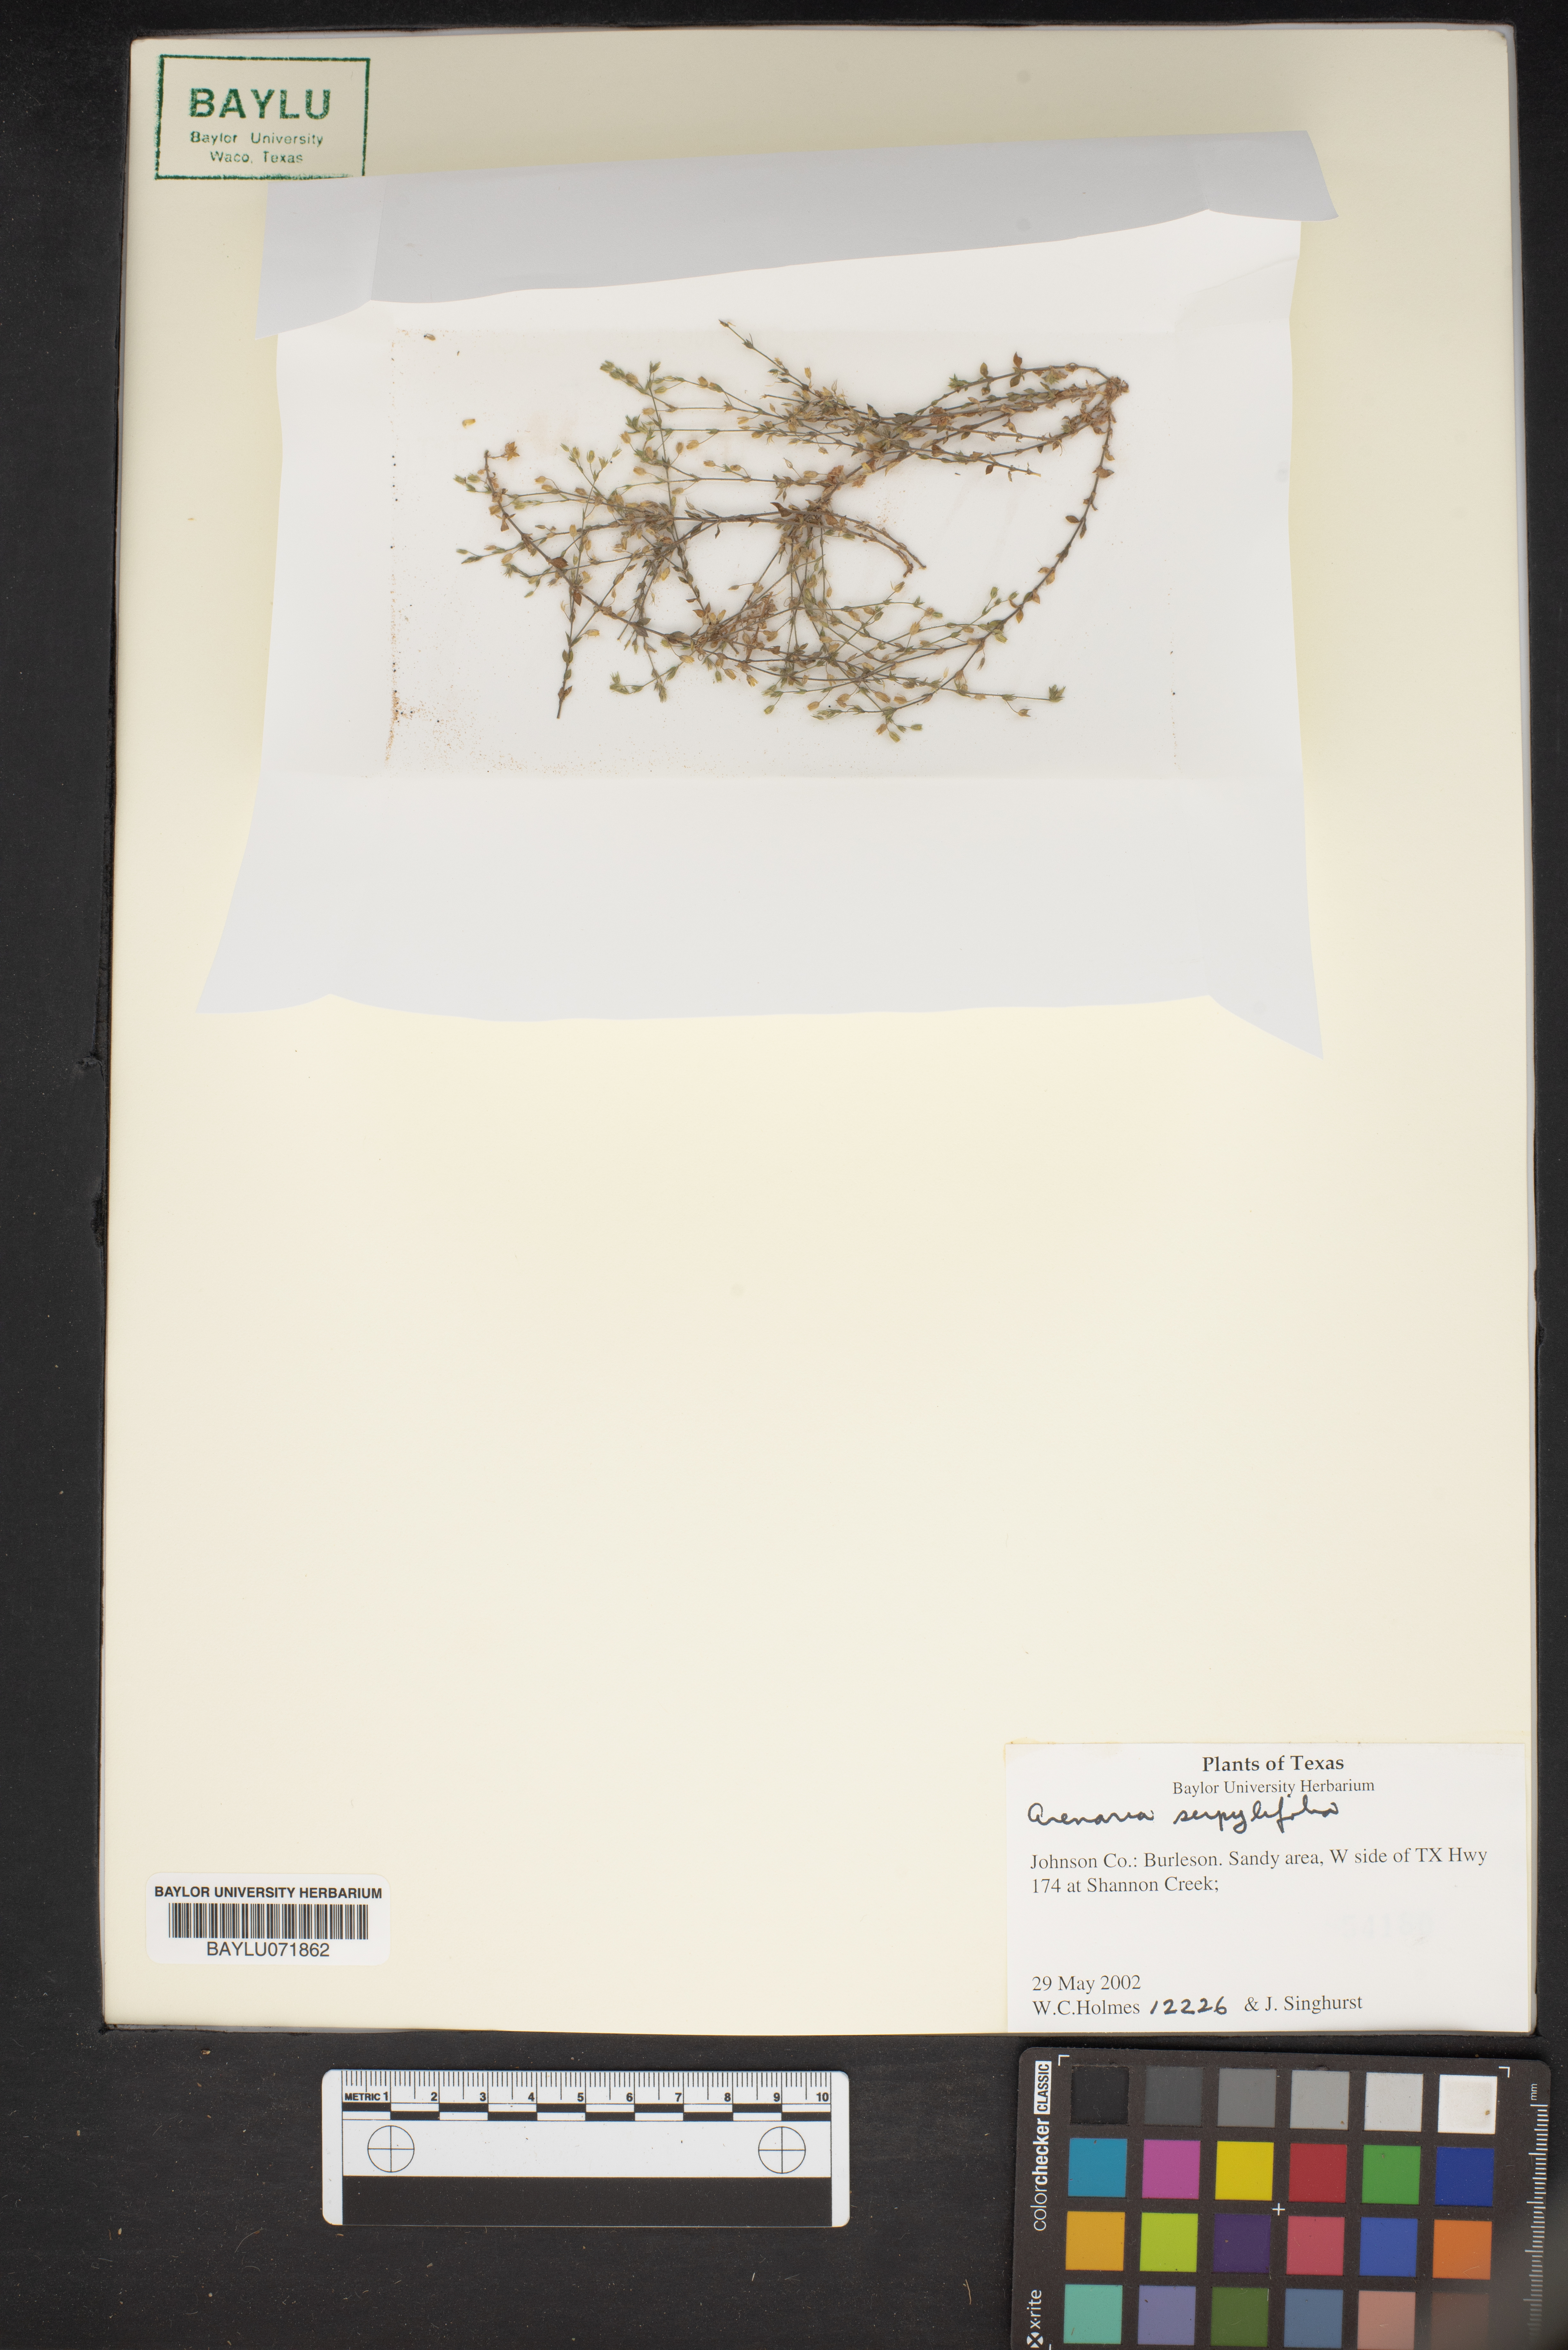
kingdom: Plantae
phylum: Tracheophyta
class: Magnoliopsida
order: Caryophyllales
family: Caryophyllaceae
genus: Arenaria
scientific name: Arenaria serpyllifolia
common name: Thyme-leaved sandwort
